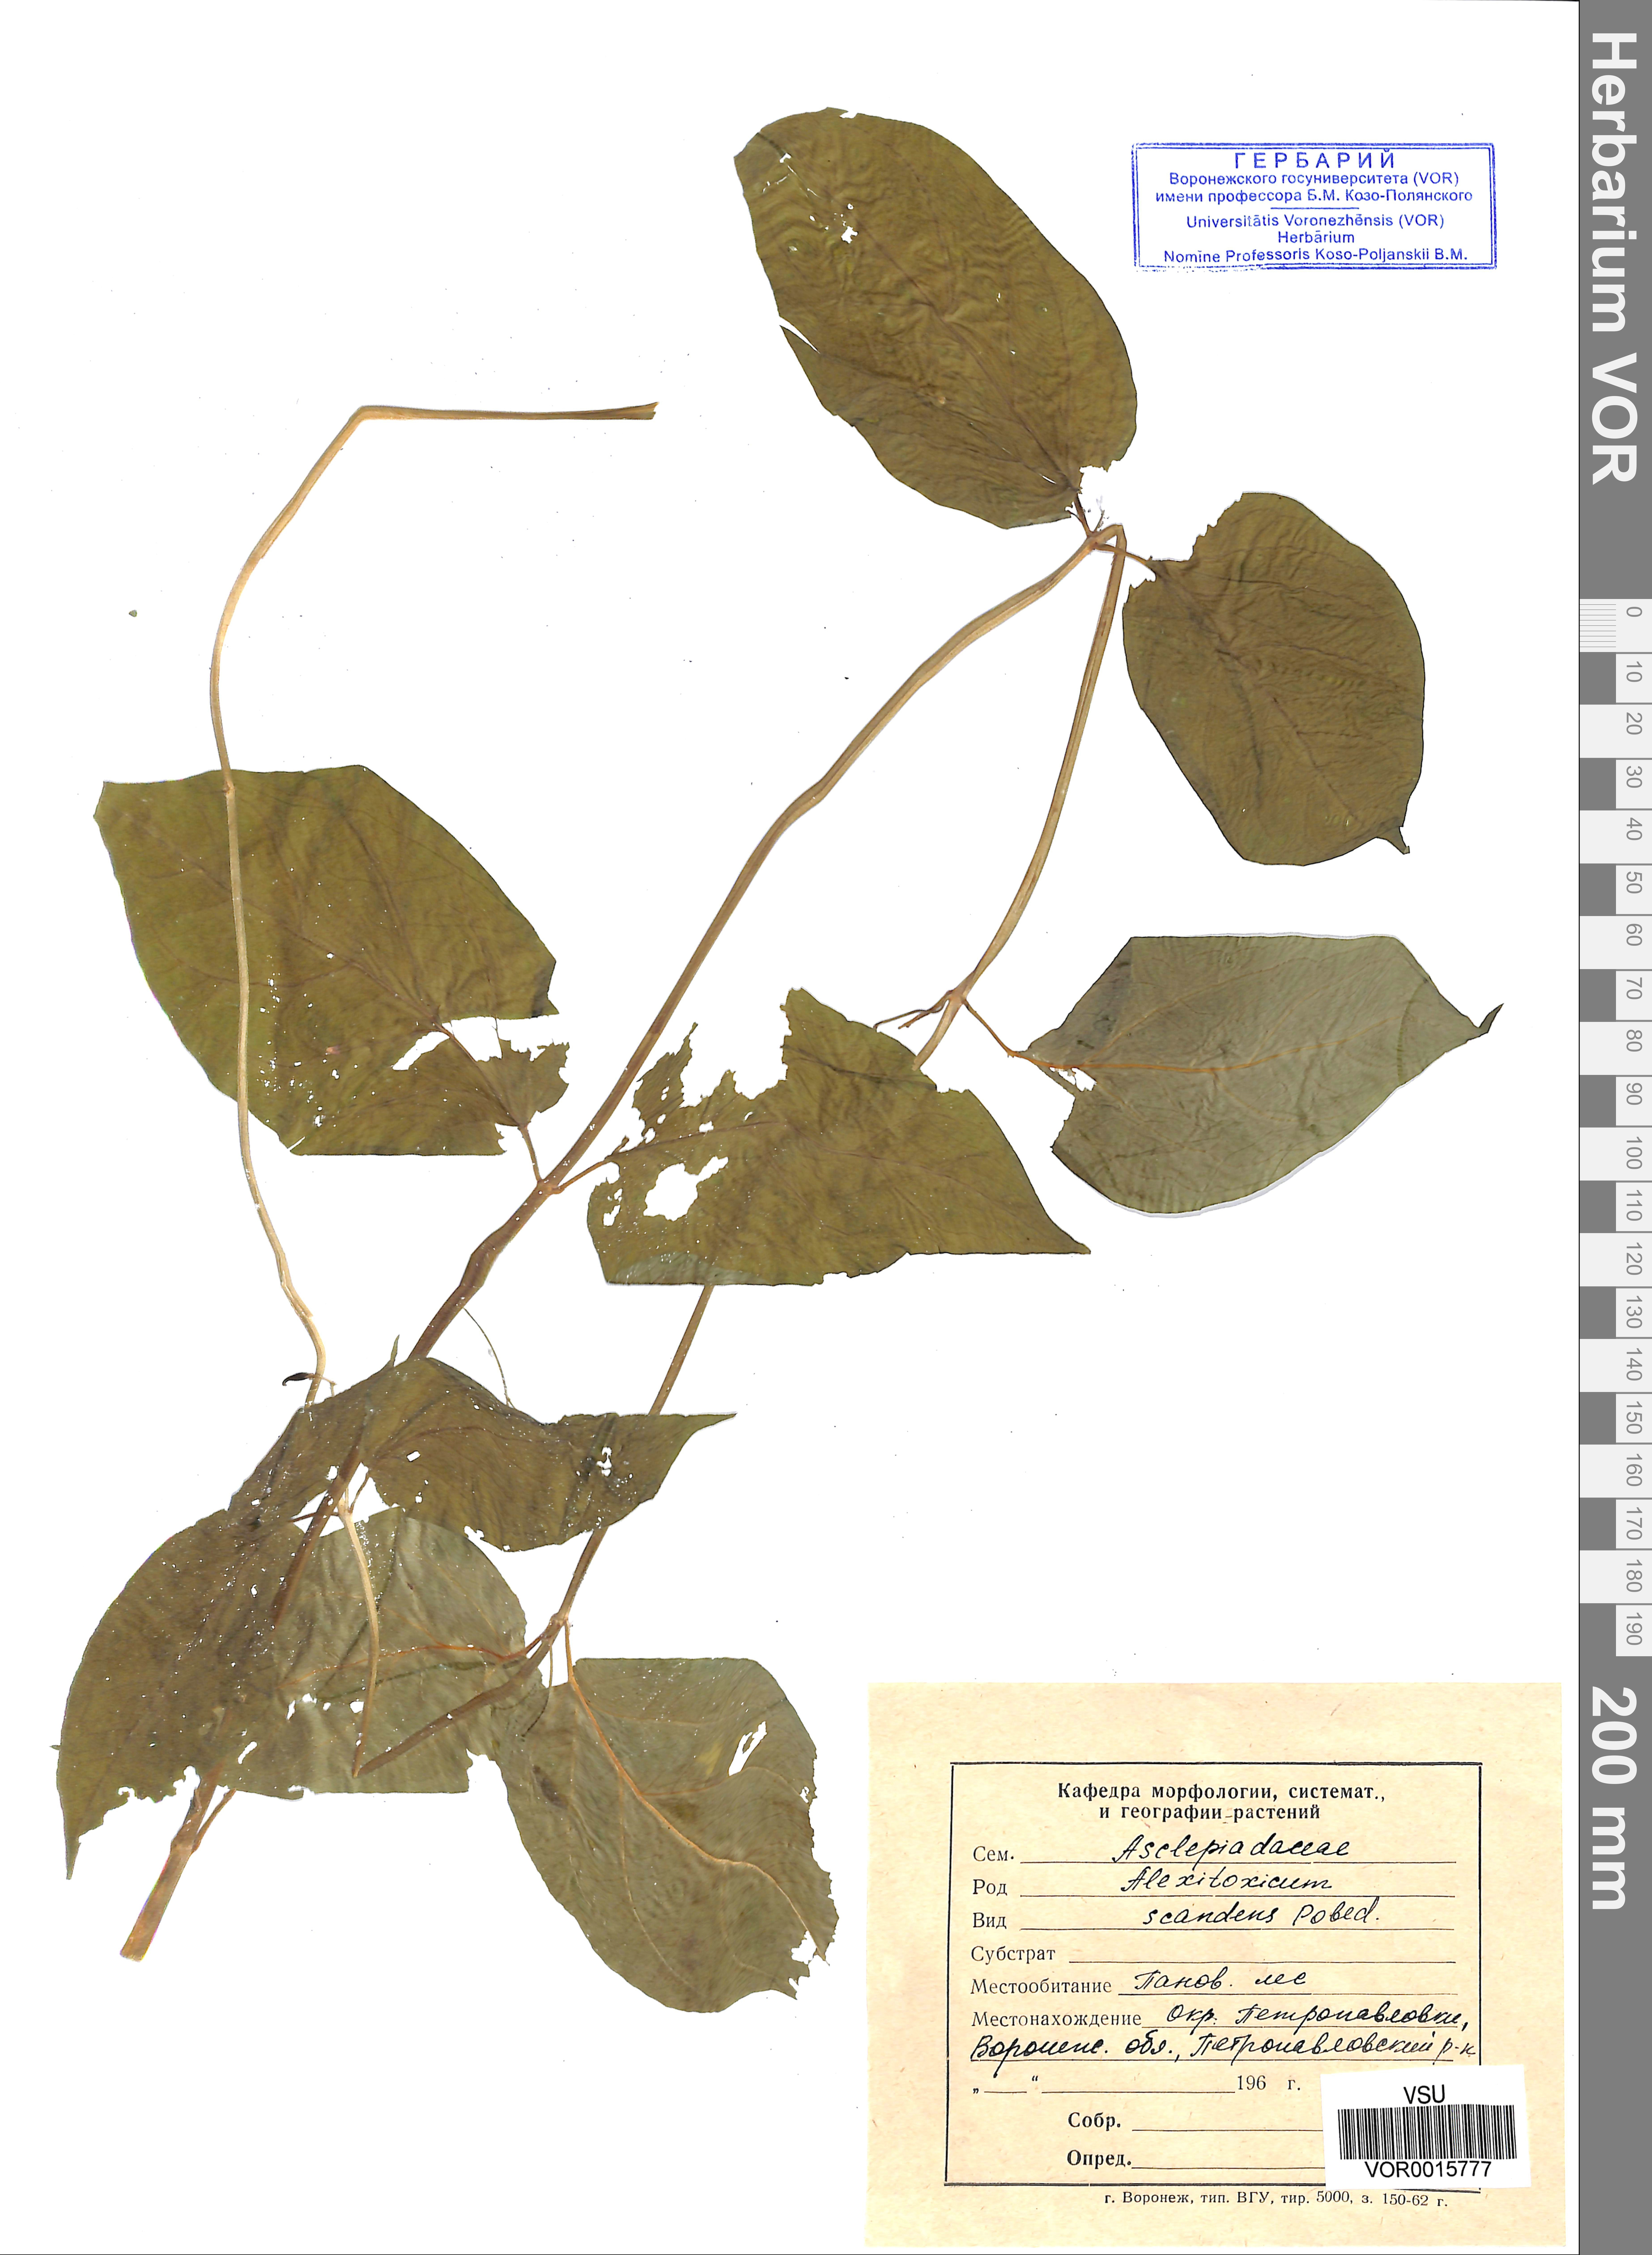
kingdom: Plantae
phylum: Tracheophyta
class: Magnoliopsida
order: Gentianales
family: Apocynaceae
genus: Vincetoxicum
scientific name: Vincetoxicum hirundinaria
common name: White swallowwort
